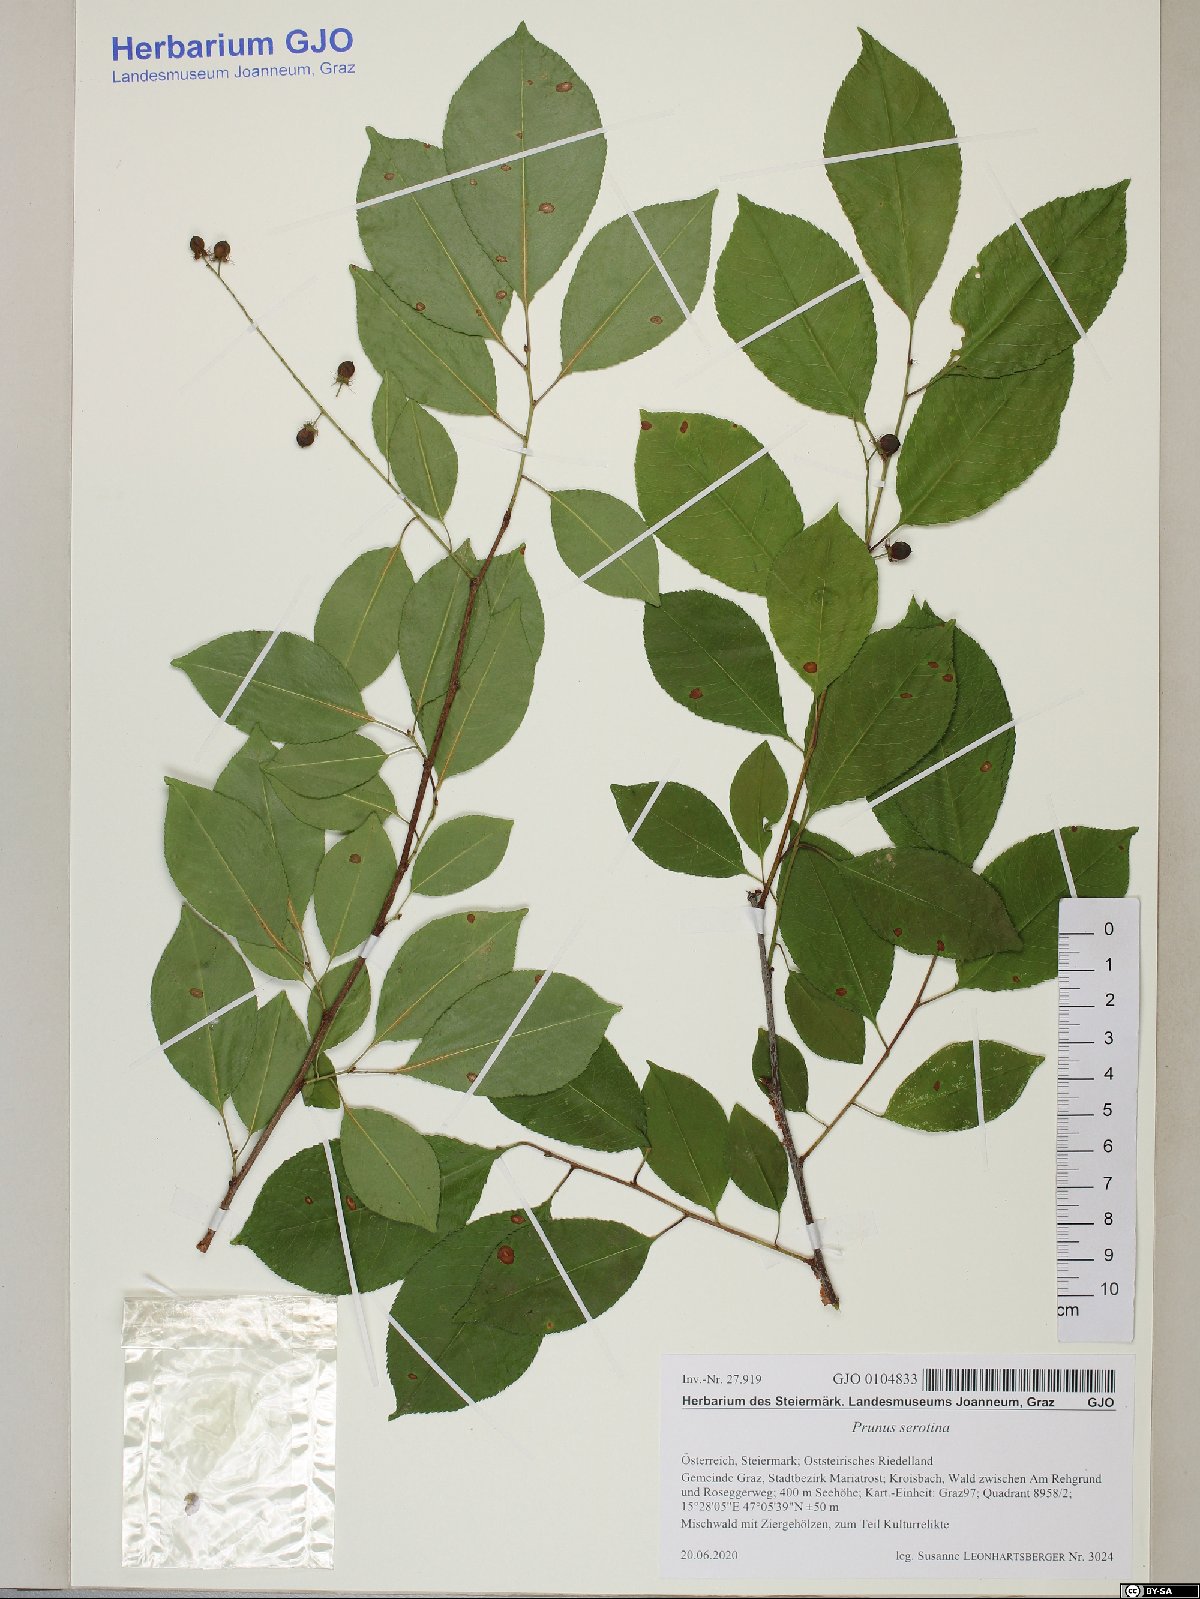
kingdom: Plantae
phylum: Tracheophyta
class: Magnoliopsida
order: Rosales
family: Rosaceae
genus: Prunus
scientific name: Prunus serotina
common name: Black cherry
